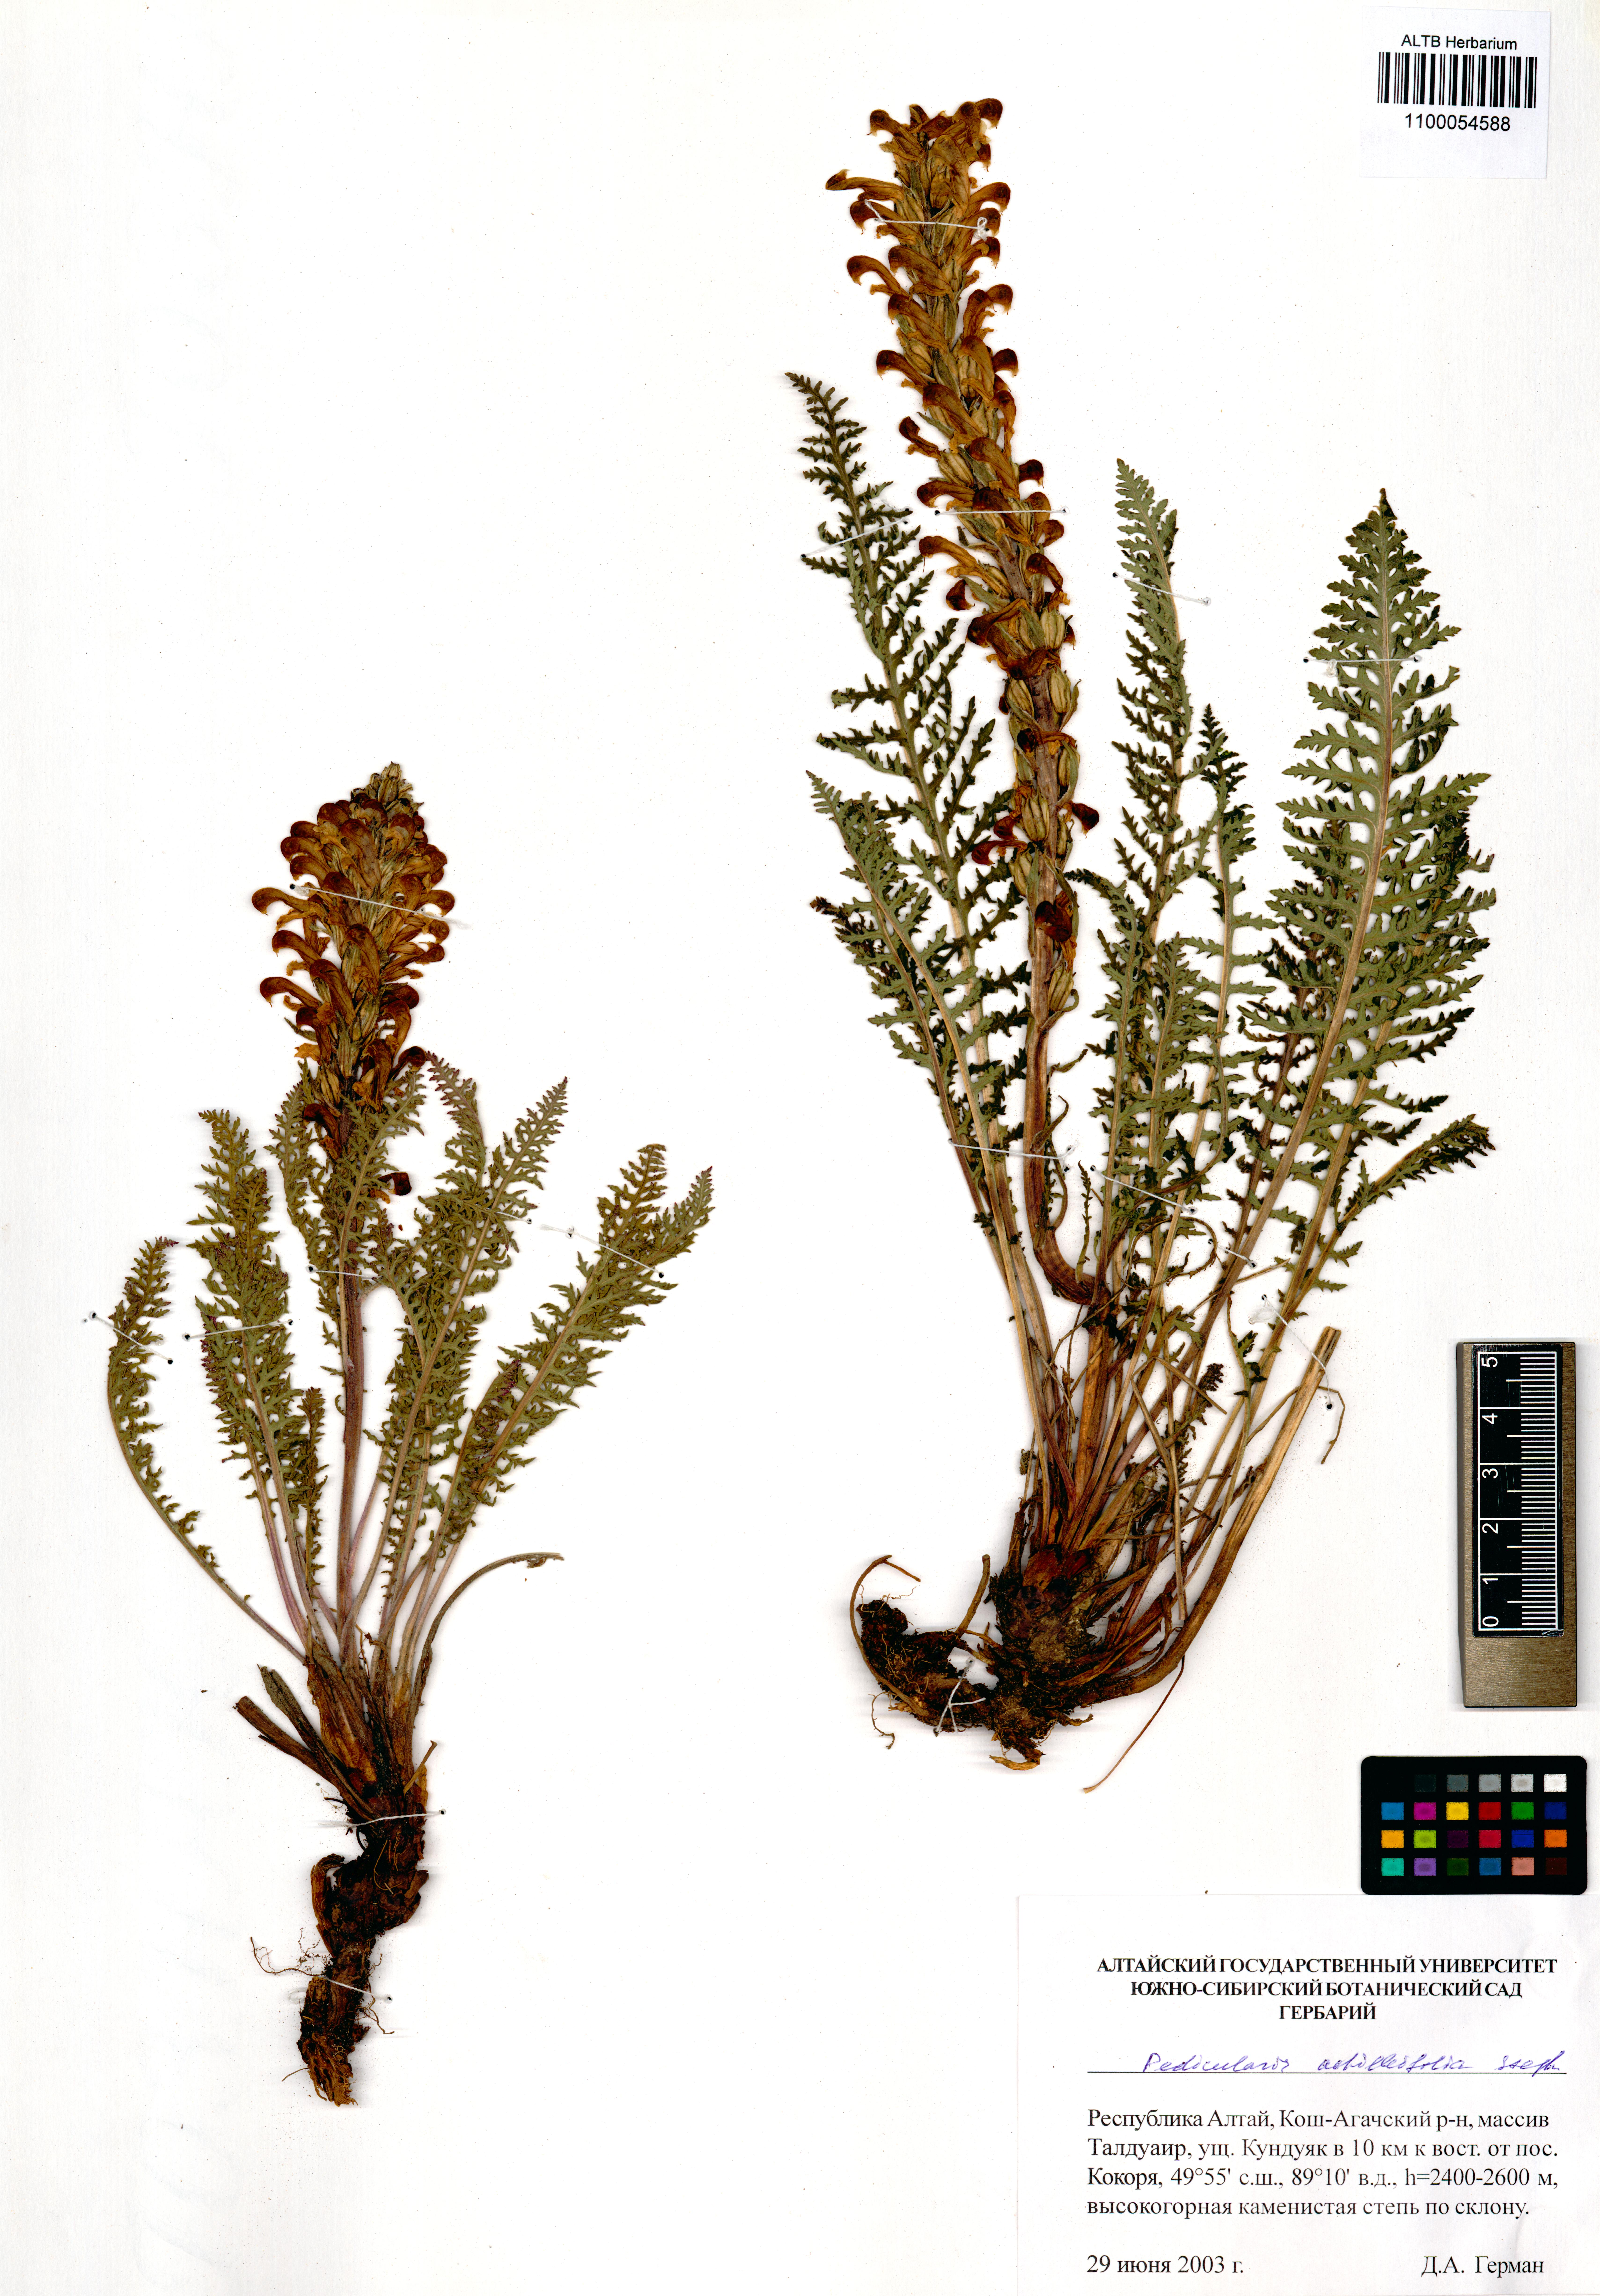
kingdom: Plantae
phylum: Tracheophyta
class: Magnoliopsida
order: Lamiales
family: Orobanchaceae
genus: Pedicularis
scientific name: Pedicularis achilleifolia
